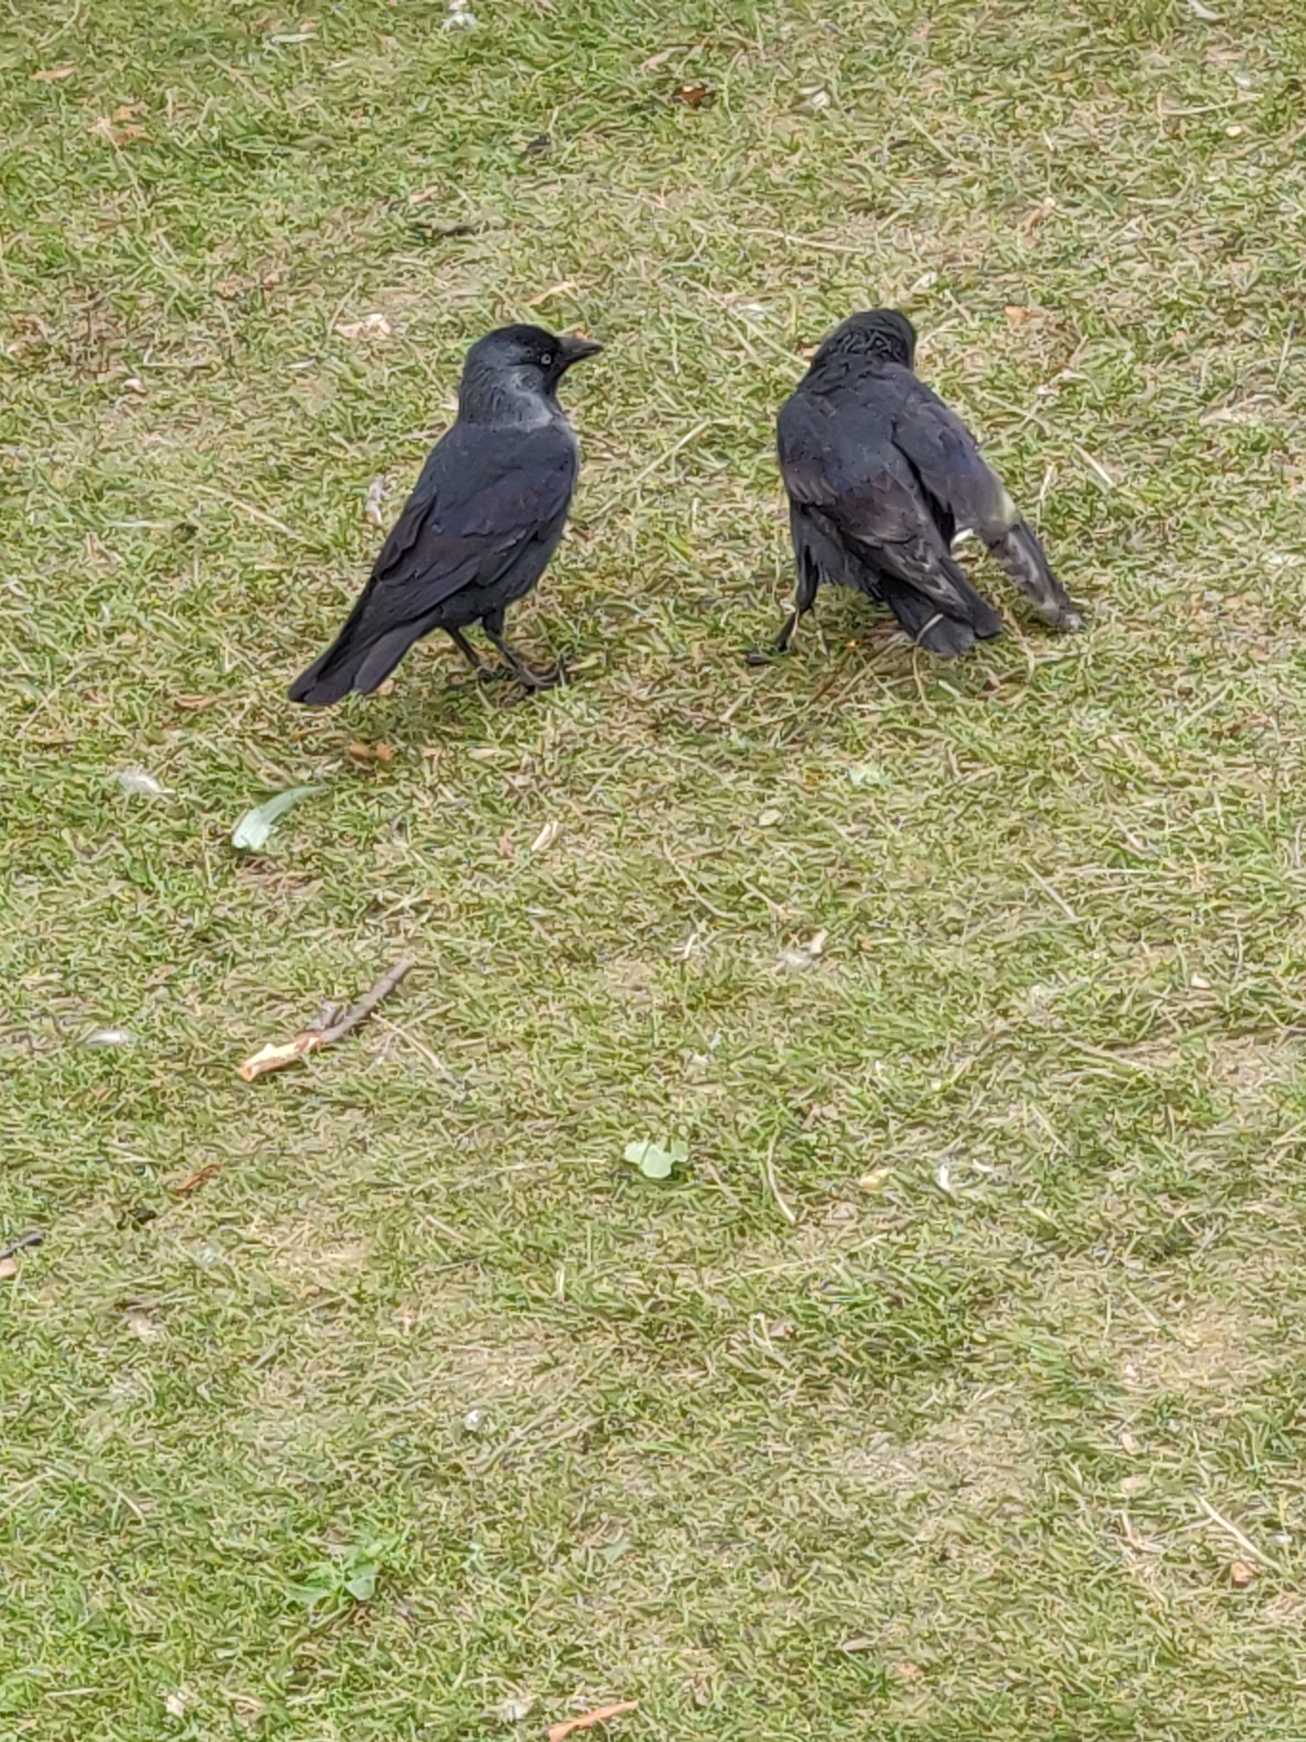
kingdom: Animalia
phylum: Chordata
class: Aves
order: Passeriformes
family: Corvidae
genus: Coloeus
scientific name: Coloeus monedula
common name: Allike
